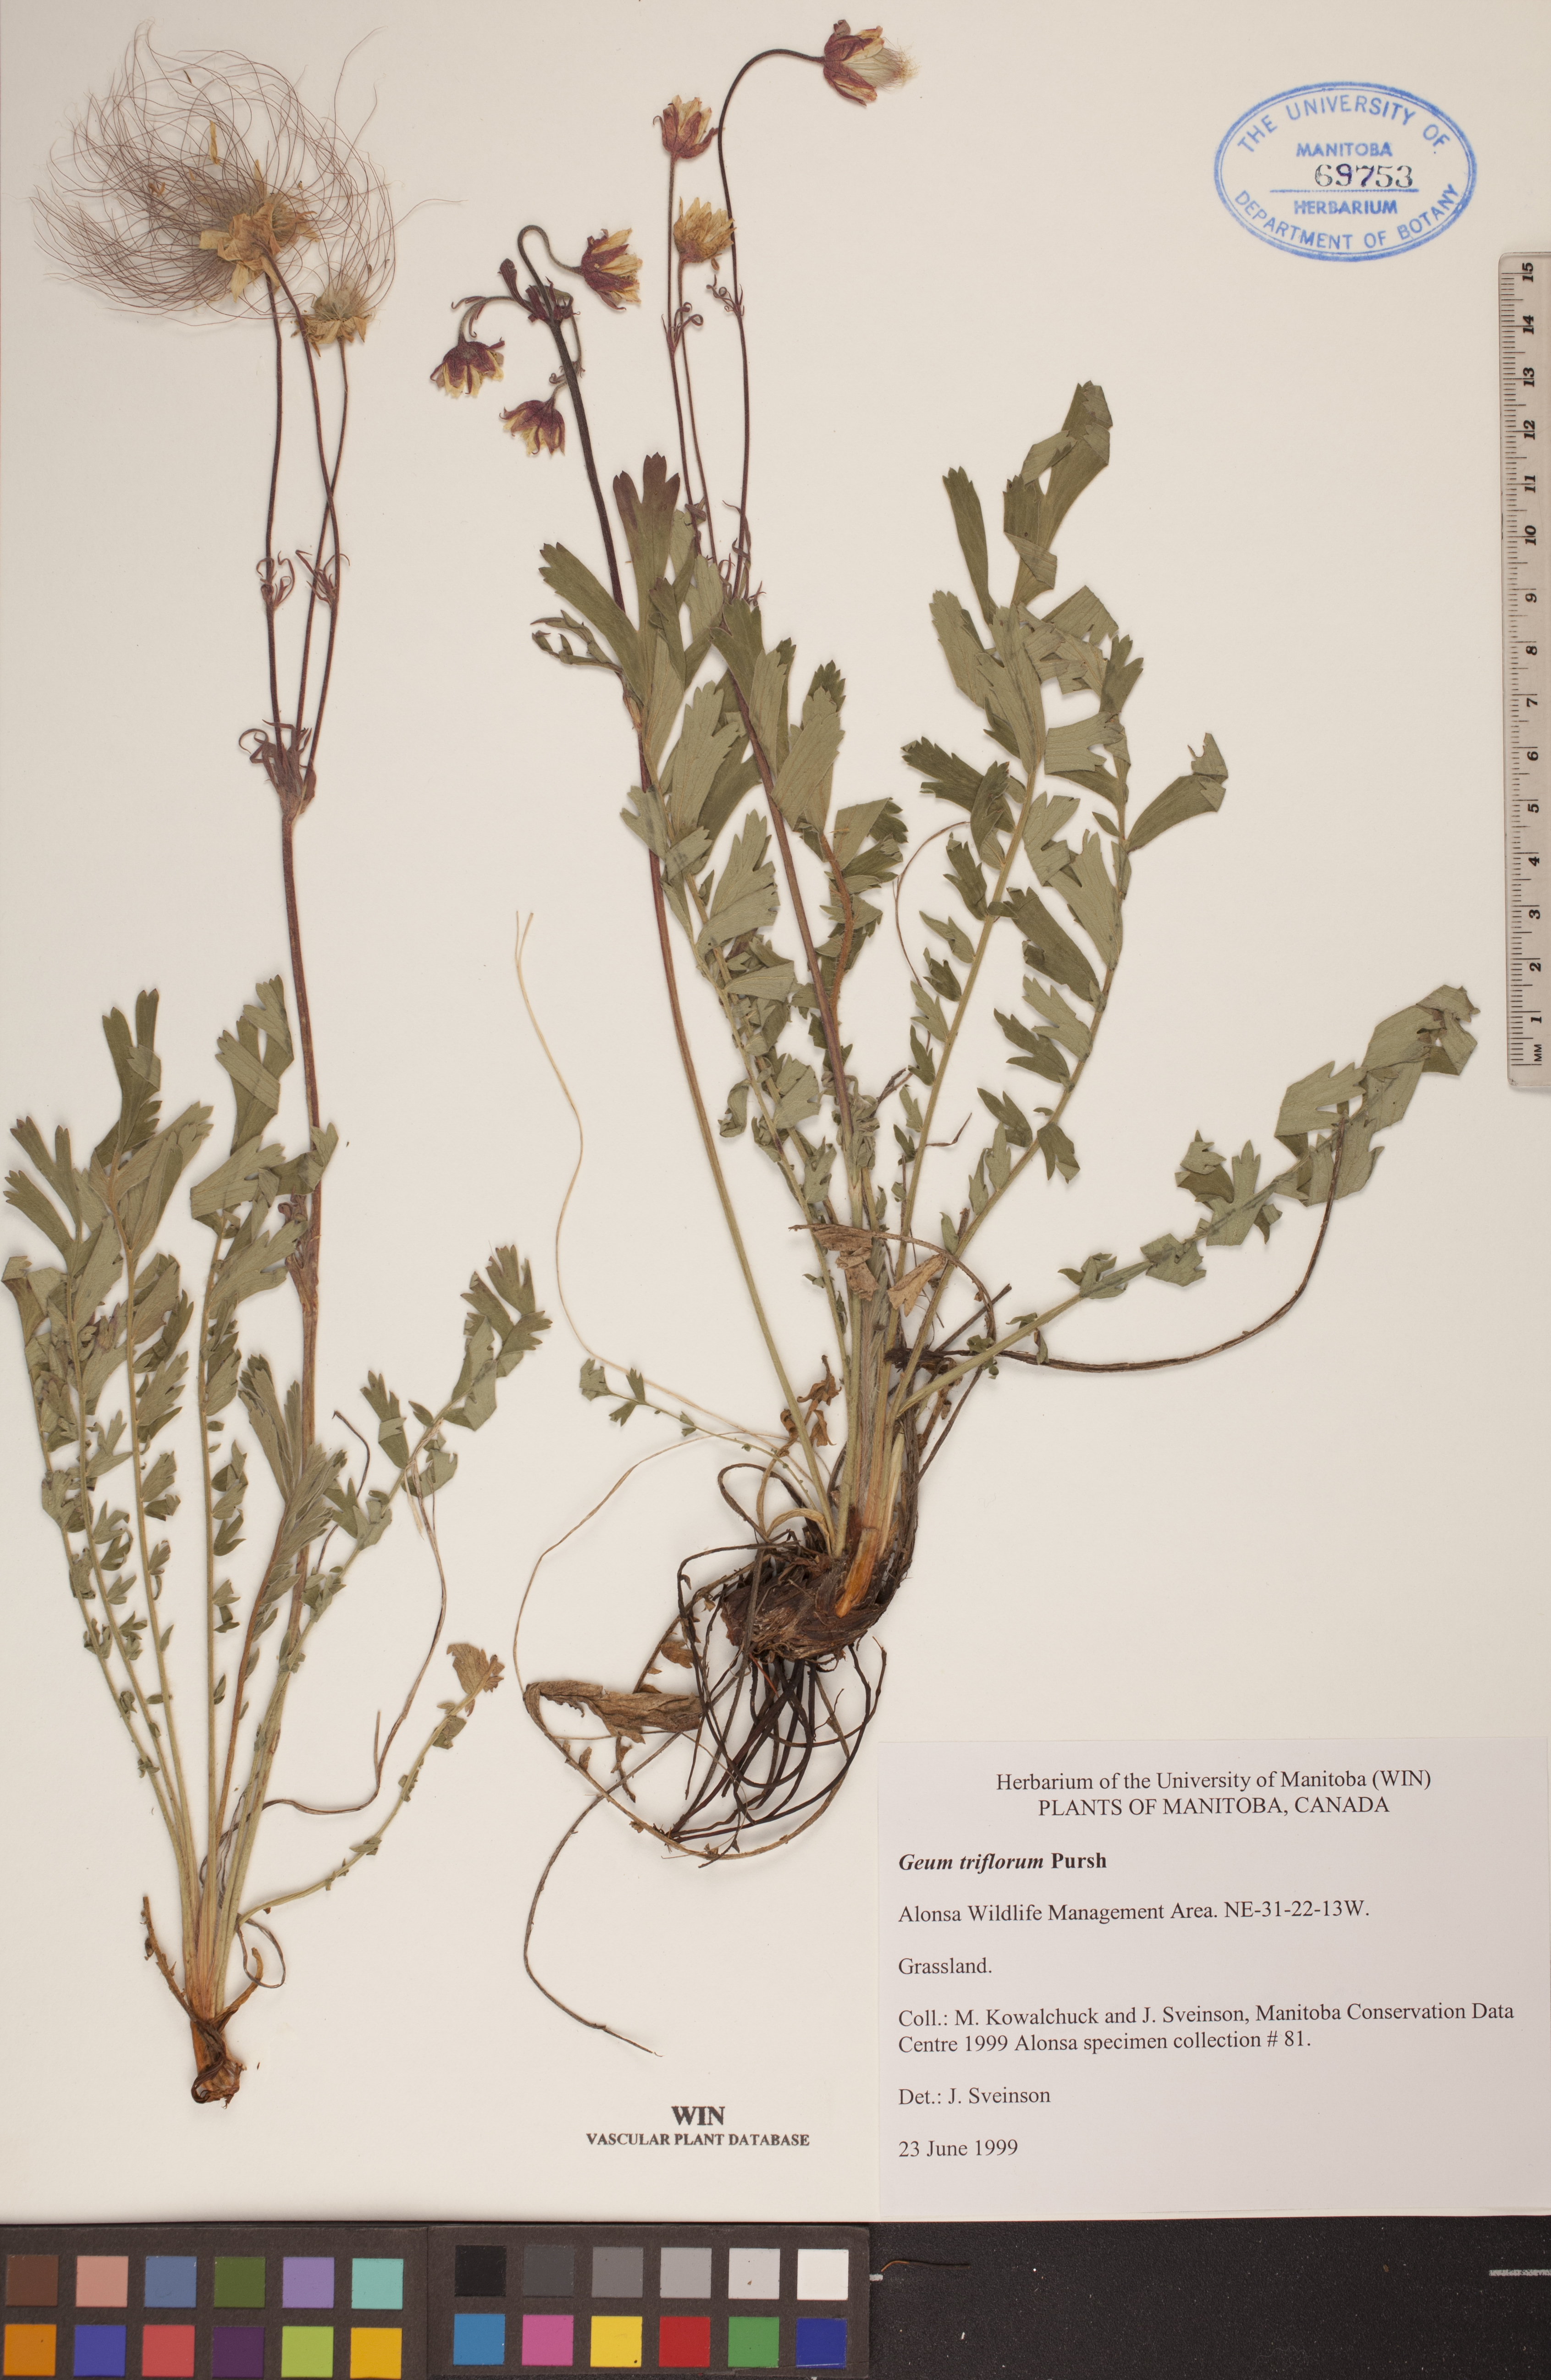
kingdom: Plantae
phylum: Tracheophyta
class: Magnoliopsida
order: Rosales
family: Rosaceae
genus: Geum
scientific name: Geum triflorum
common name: Old man's whiskers
